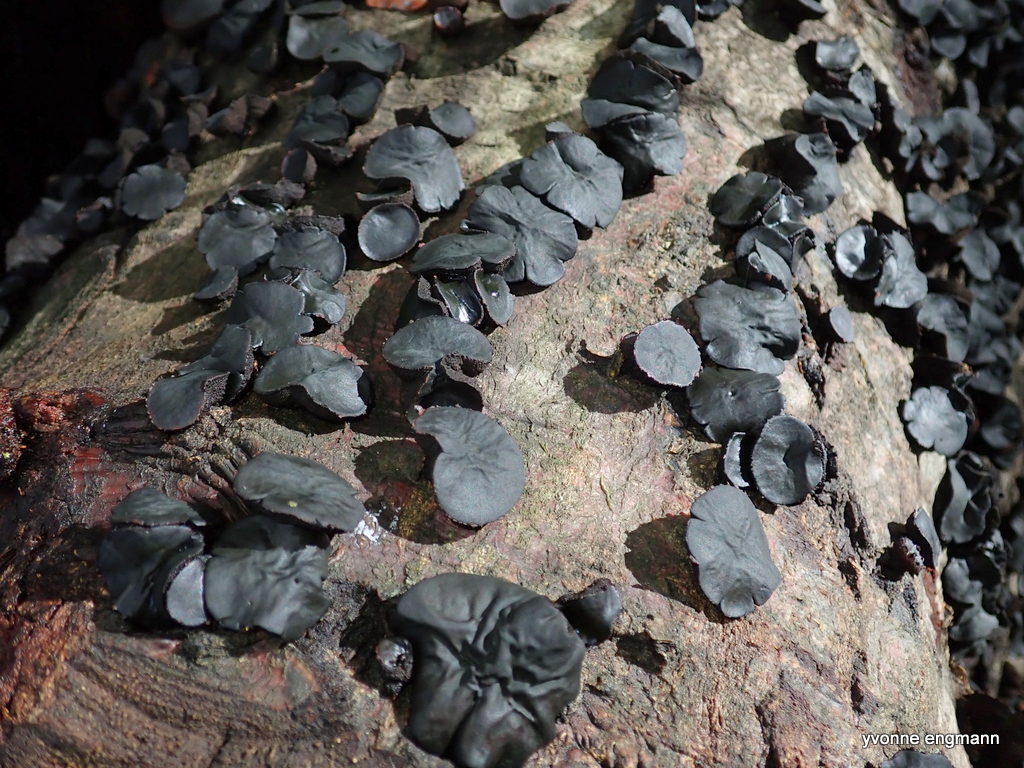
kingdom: Fungi
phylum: Ascomycota
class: Leotiomycetes
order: Phacidiales
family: Phacidiaceae
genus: Bulgaria
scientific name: Bulgaria inquinans
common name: afsmittende topsvamp
